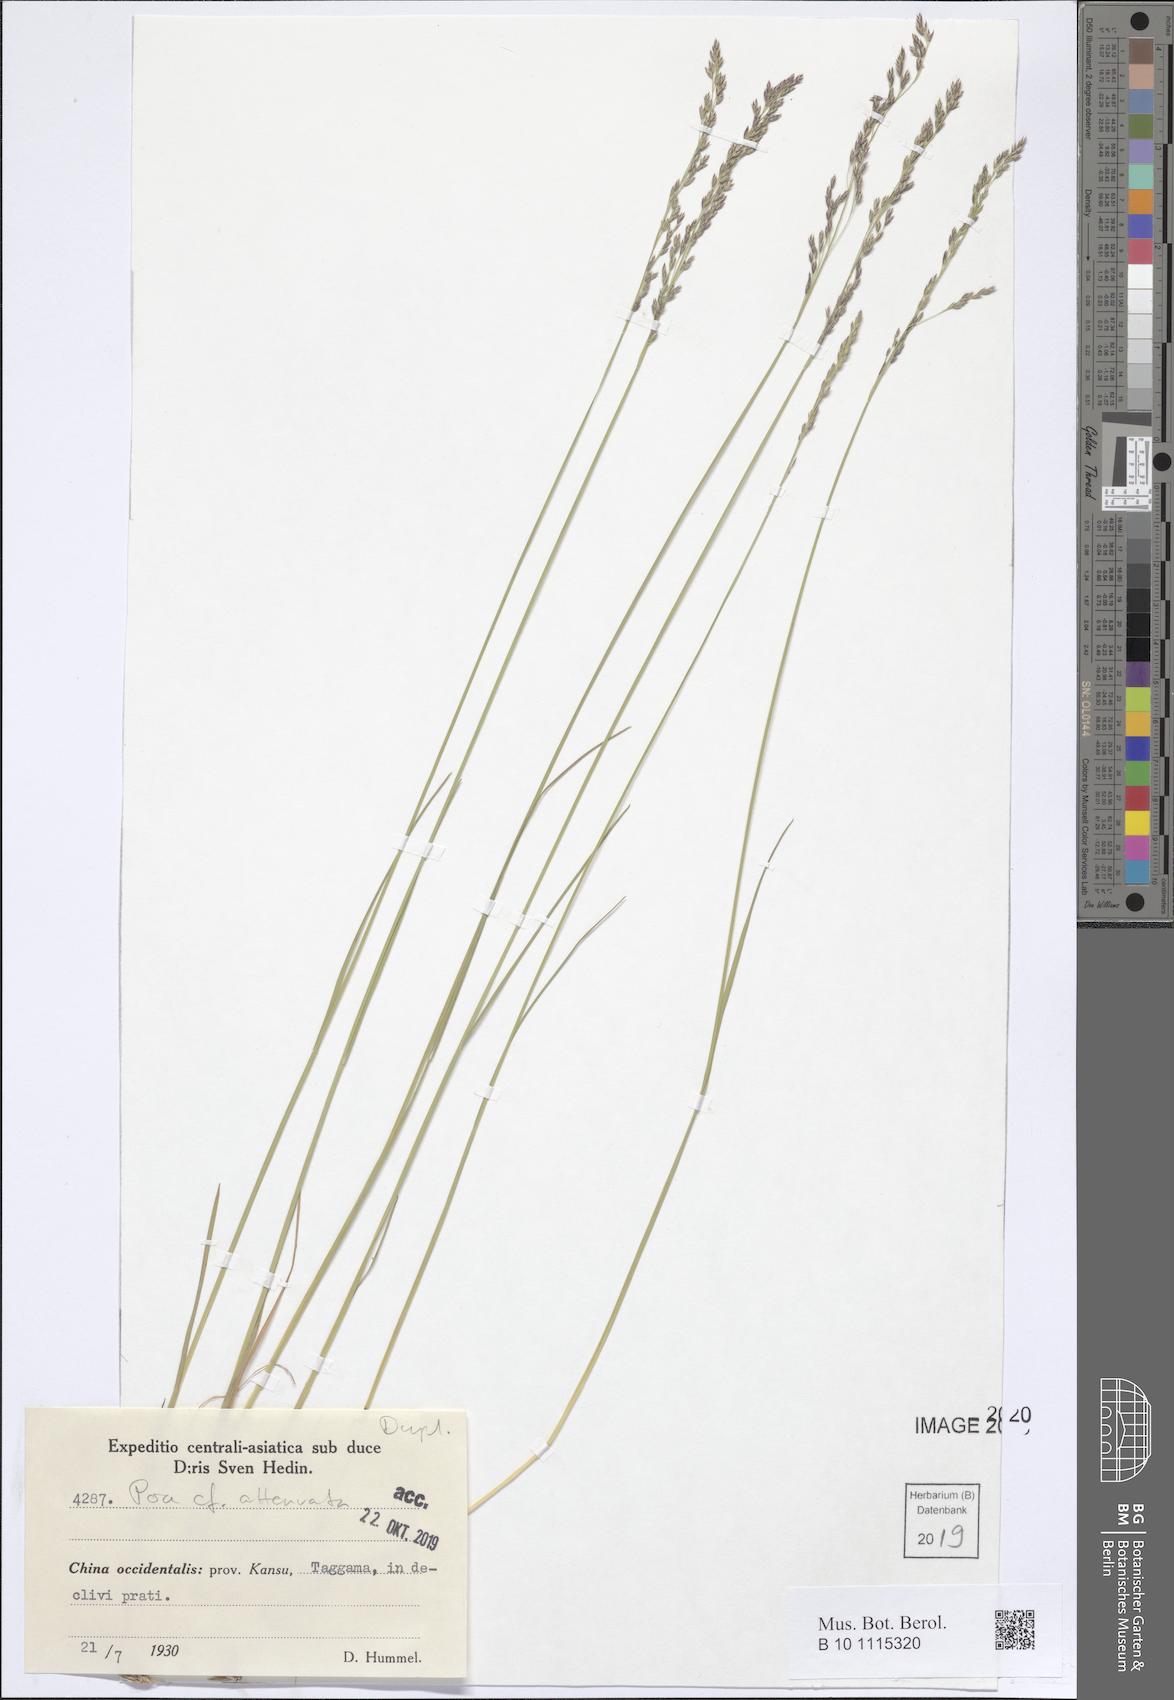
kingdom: Plantae
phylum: Tracheophyta
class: Liliopsida
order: Poales
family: Poaceae
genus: Poa
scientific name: Poa attenuata
